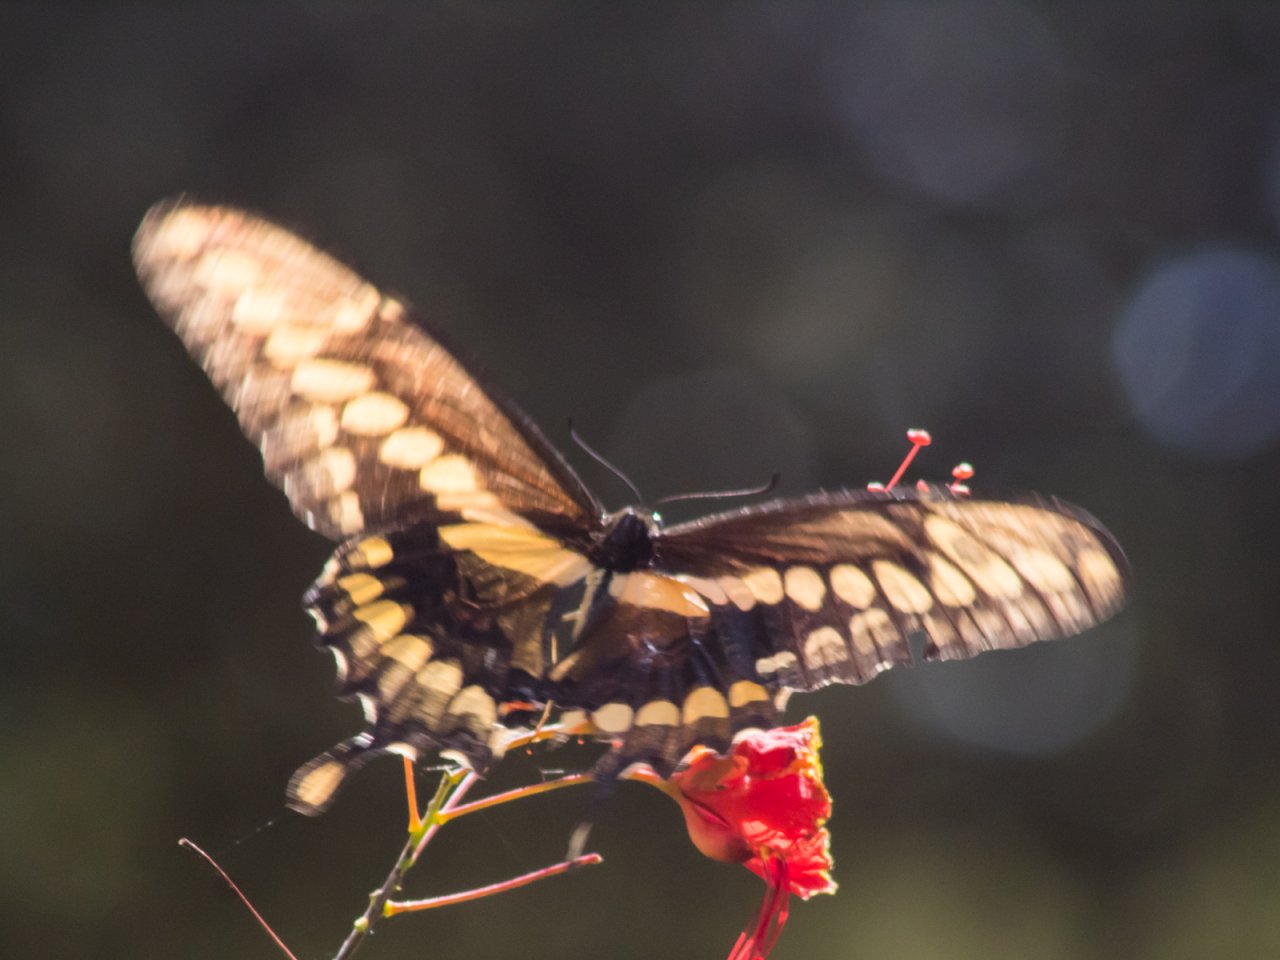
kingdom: Animalia
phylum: Arthropoda
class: Insecta
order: Lepidoptera
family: Papilionidae
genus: Papilio
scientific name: Papilio rumiko
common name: Western Giant Swallowtail
